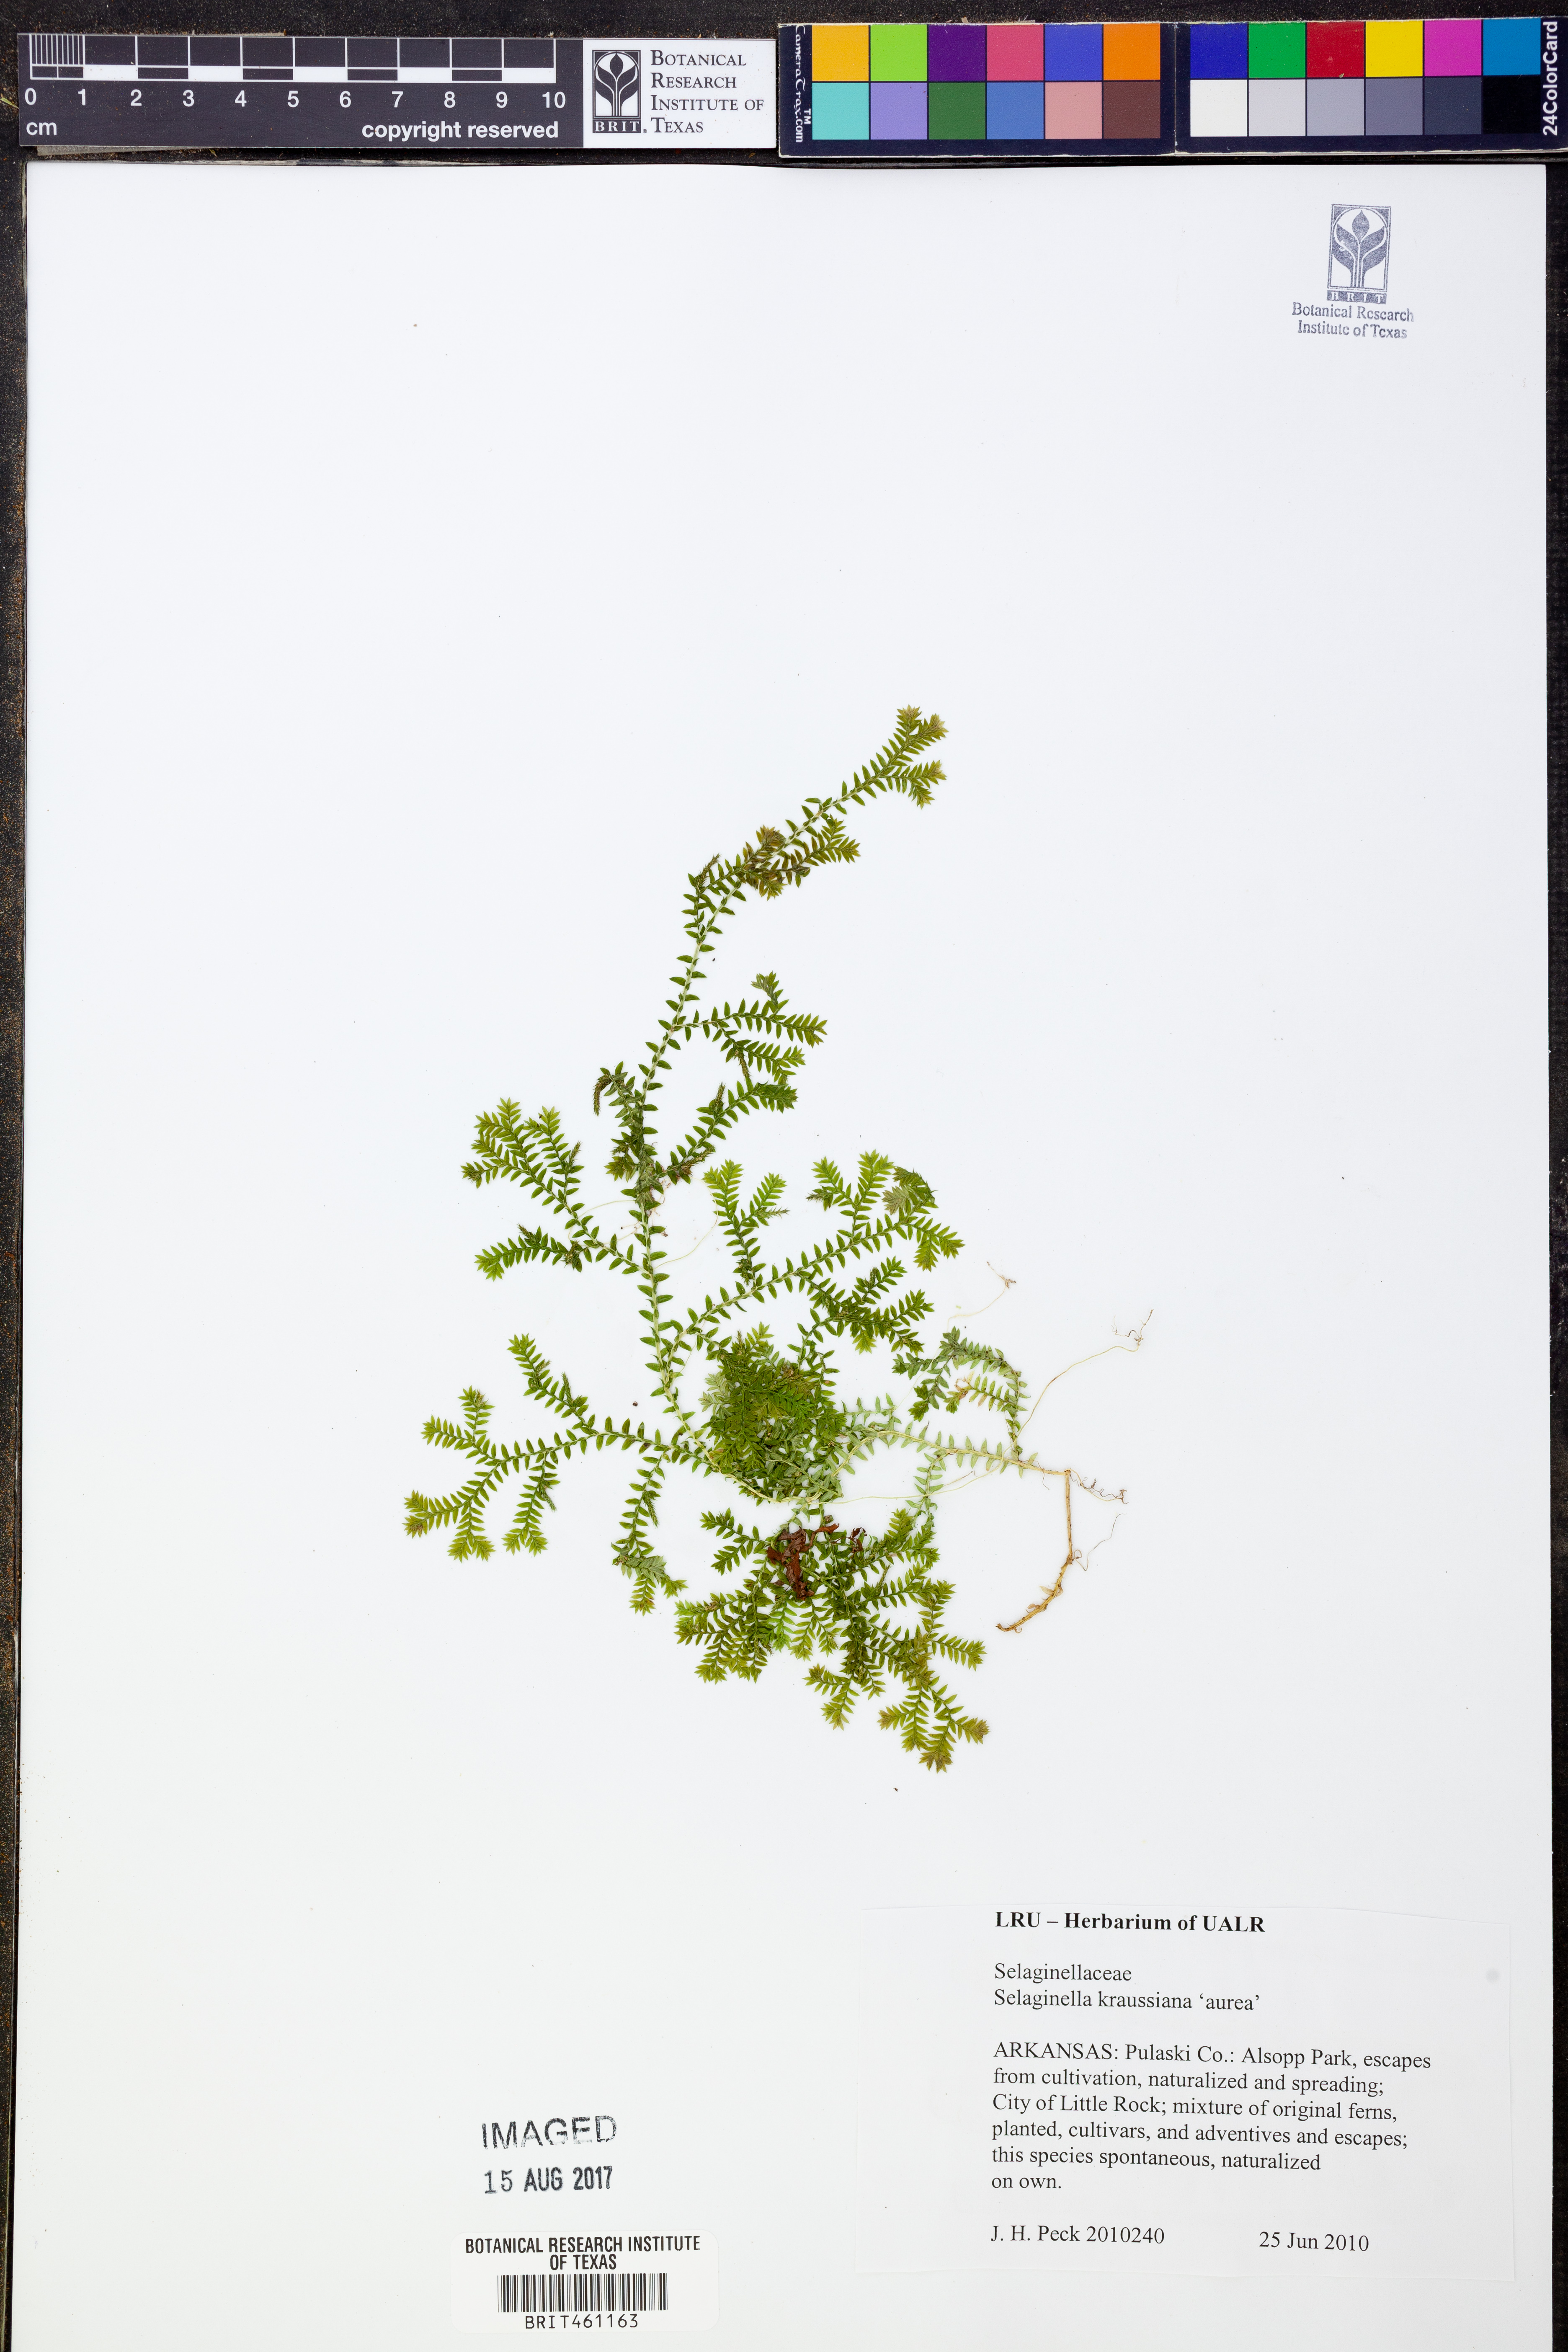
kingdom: Plantae
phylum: Tracheophyta
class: Lycopodiopsida
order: Selaginellales
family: Selaginellaceae
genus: Selaginella
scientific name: Selaginella kraussiana
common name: Krauss' spikemoss
